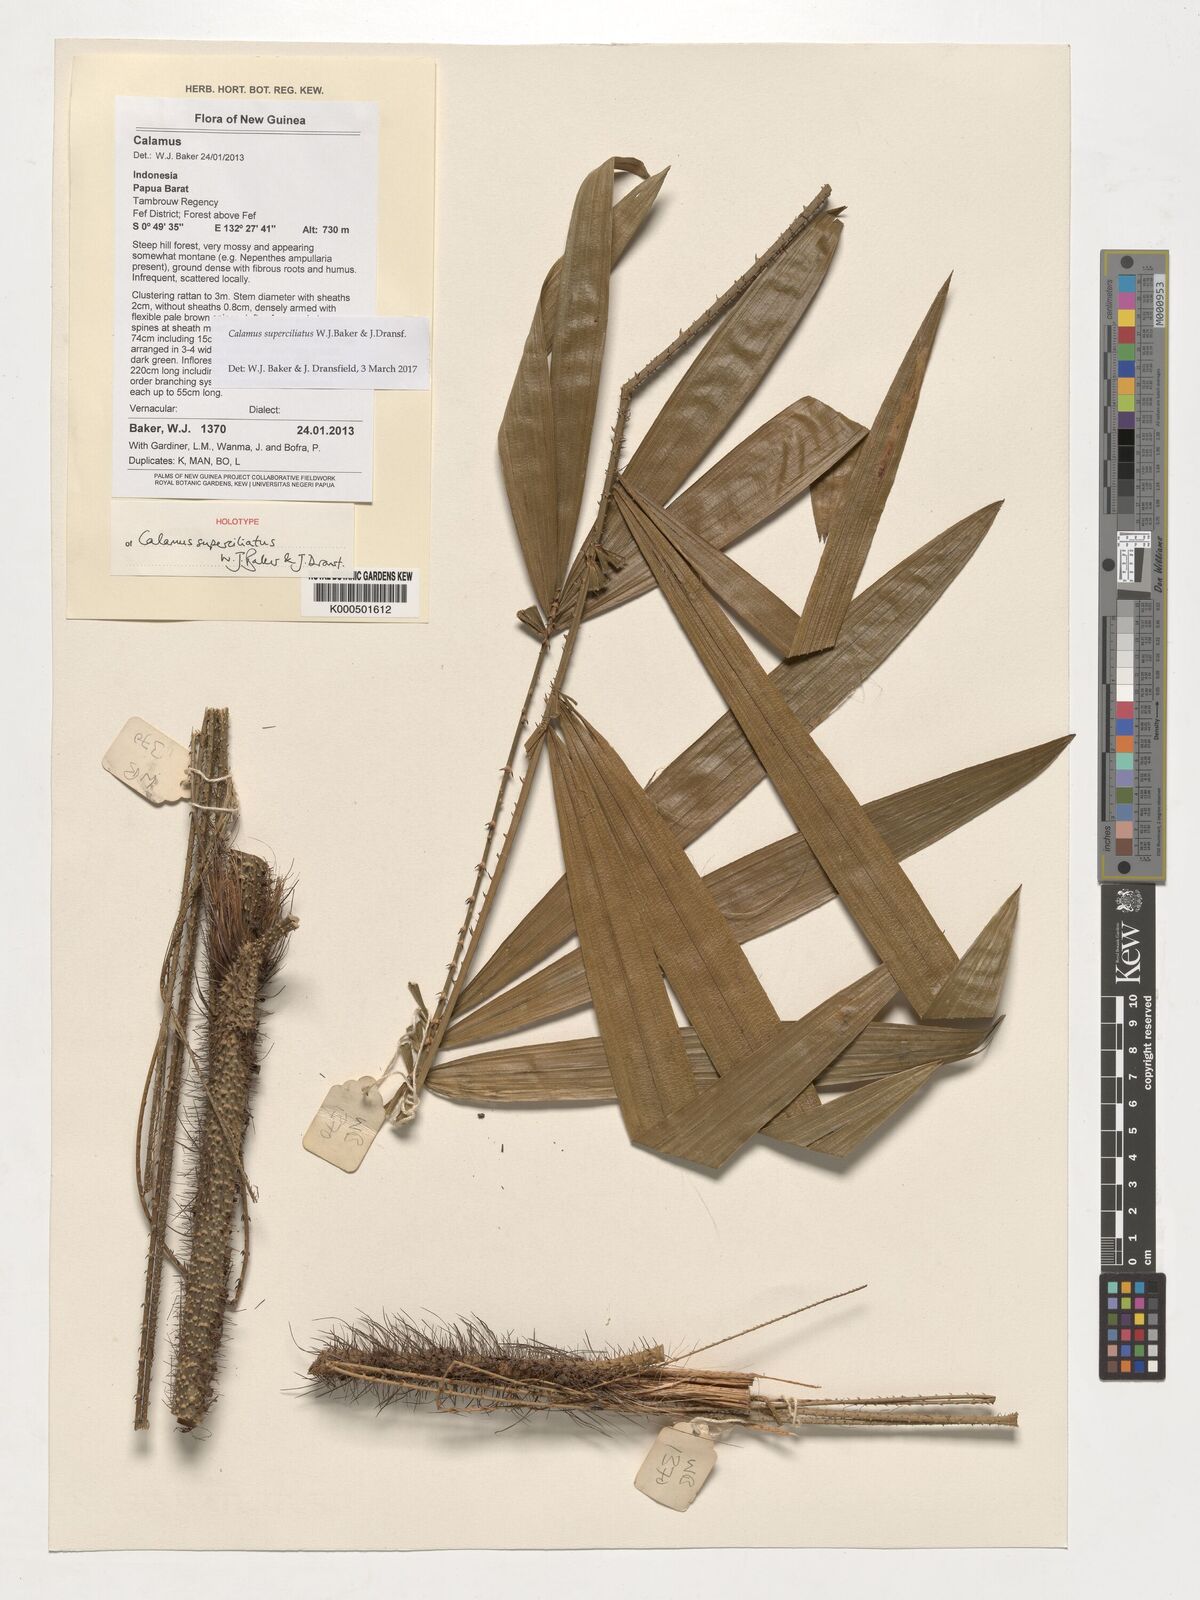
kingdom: Plantae
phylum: Tracheophyta
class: Liliopsida
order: Arecales
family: Arecaceae
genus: Calamus
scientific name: Calamus superciliatus
